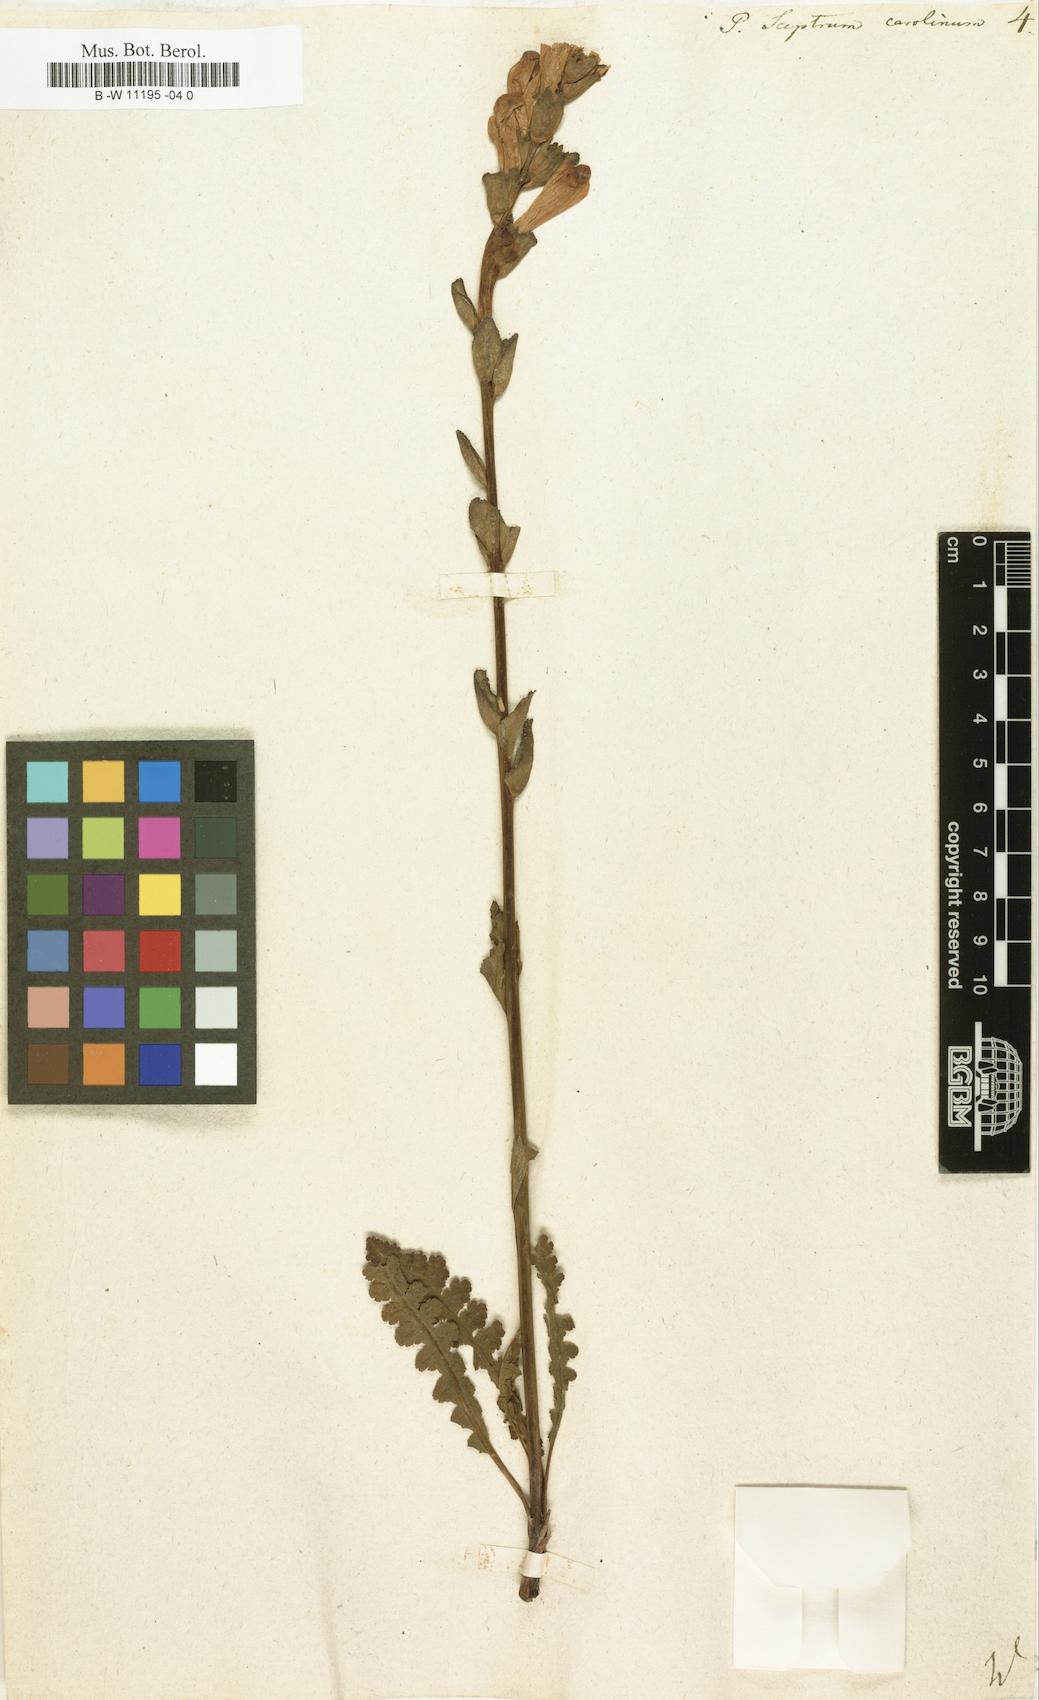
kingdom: Plantae
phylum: Tracheophyta
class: Magnoliopsida
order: Lamiales
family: Orobanchaceae
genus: Pedicularis
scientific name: Pedicularis sceptrum-carolinum
